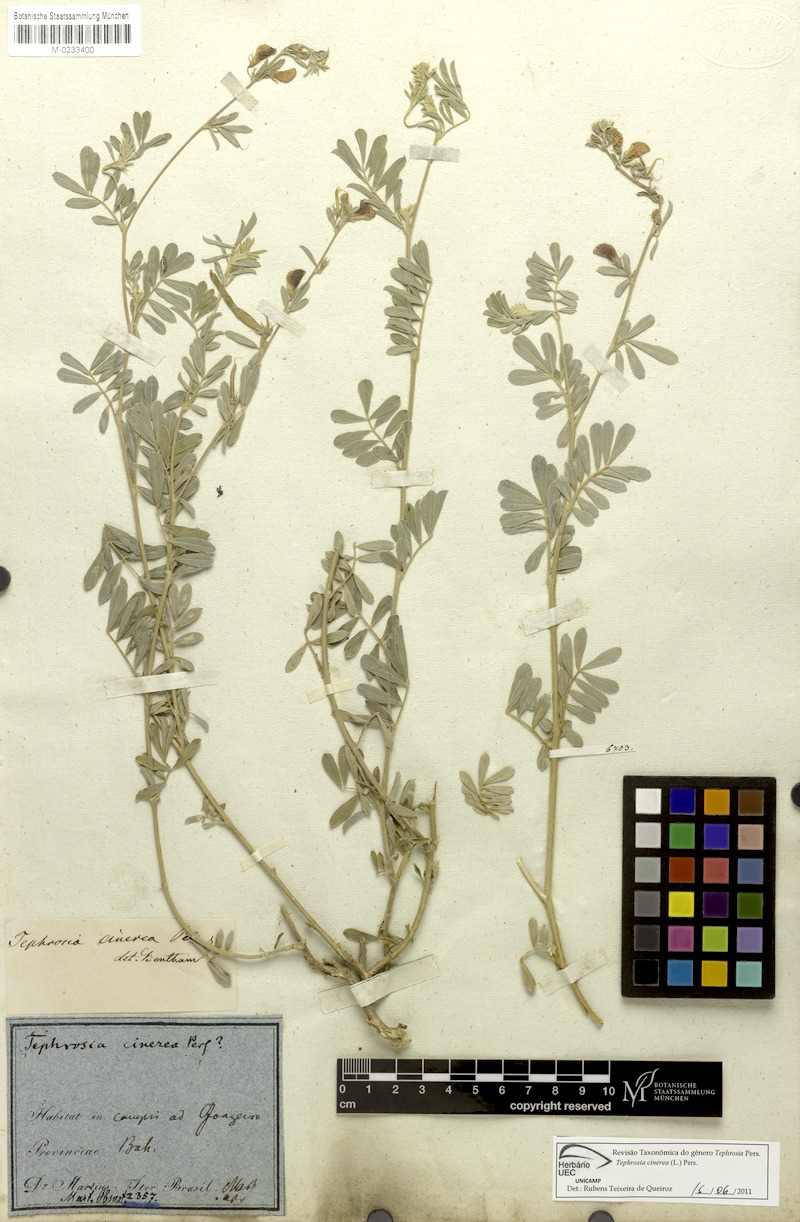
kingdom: Plantae
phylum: Tracheophyta
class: Magnoliopsida
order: Fabales
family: Fabaceae
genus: Tephrosia
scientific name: Tephrosia cinerea
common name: Ashen hoarypea
